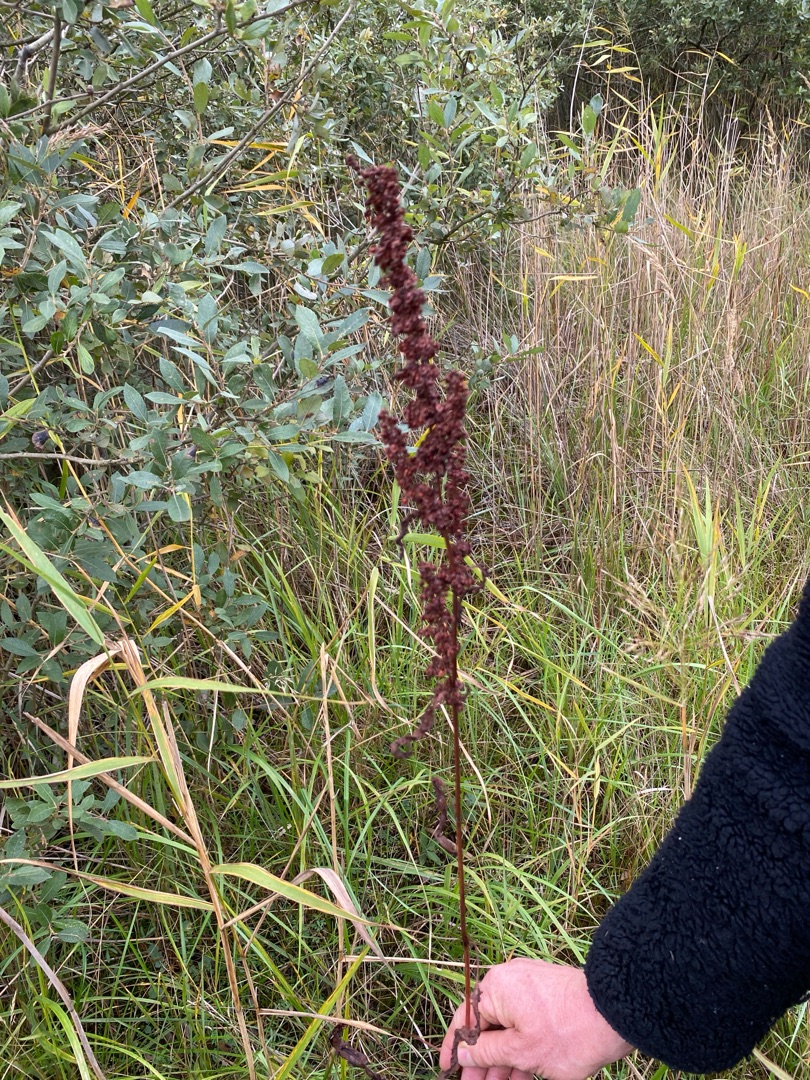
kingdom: Plantae
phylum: Tracheophyta
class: Magnoliopsida
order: Caryophyllales
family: Polygonaceae
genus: Rumex
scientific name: Rumex crispus
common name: Kruset skræppe
